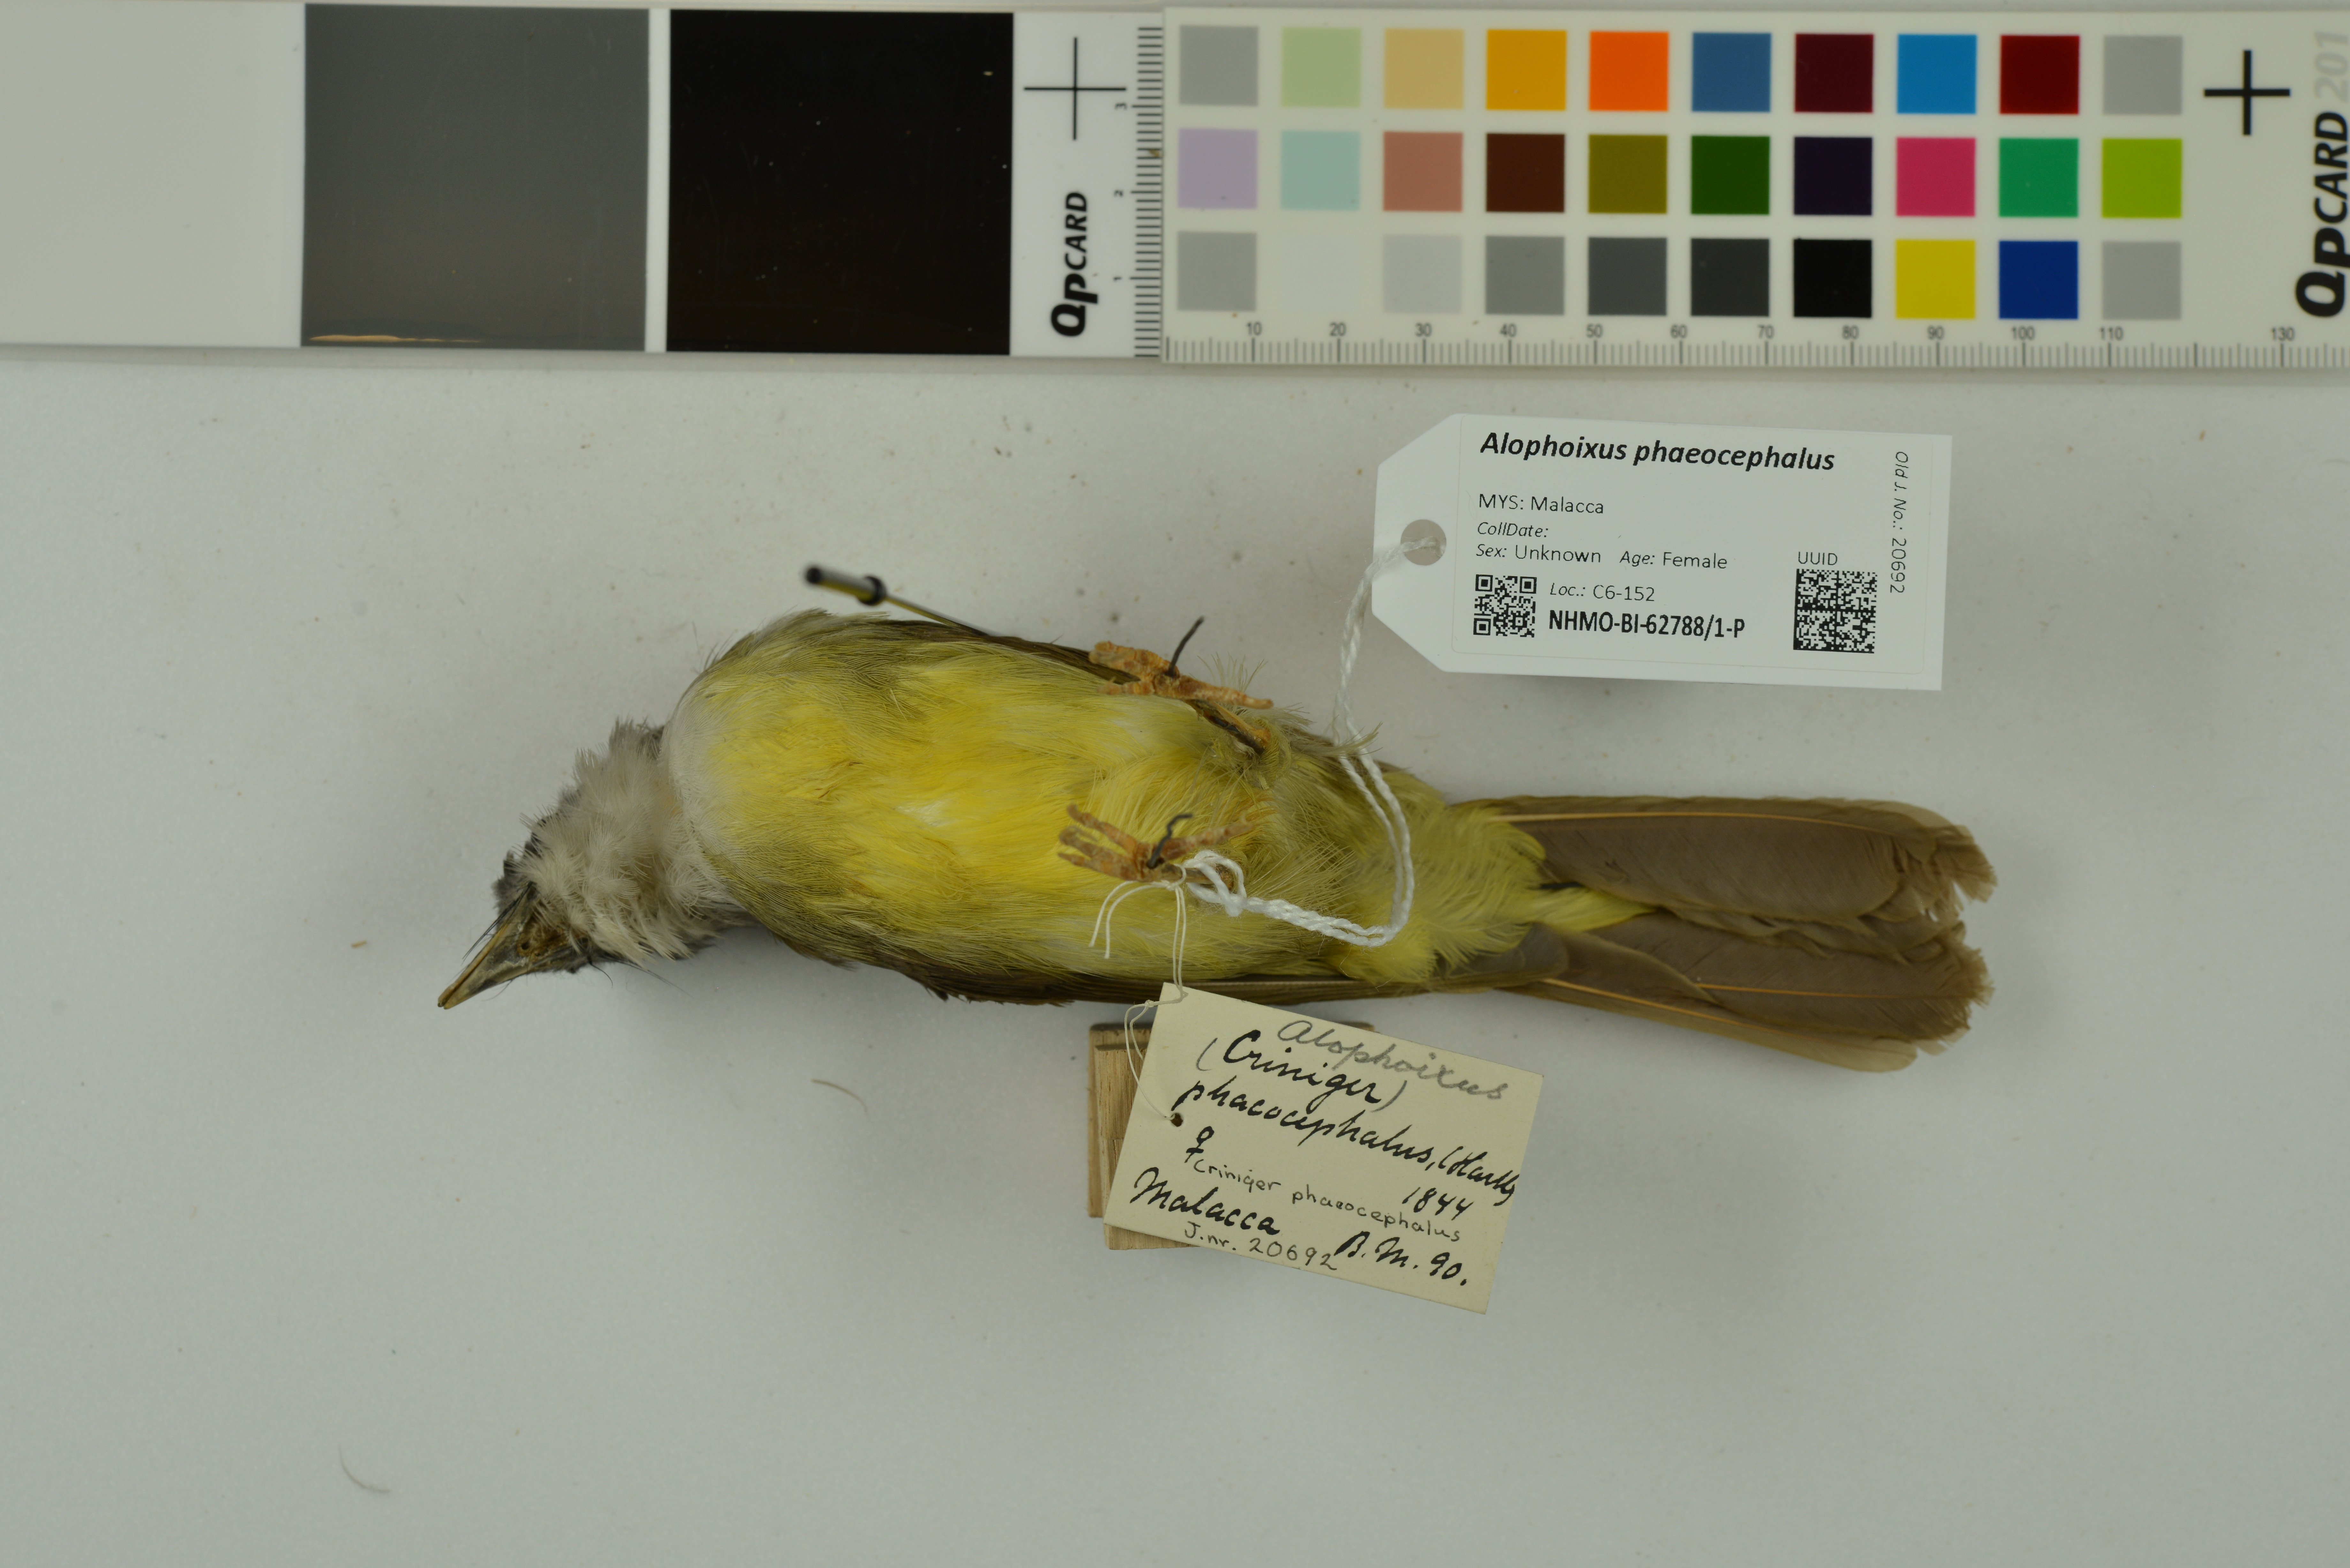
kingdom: Animalia
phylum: Chordata
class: Aves
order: Passeriformes
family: Pycnonotidae
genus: Alophoixus
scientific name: Alophoixus phaeocephalus
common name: Yellow-bellied bulbul
